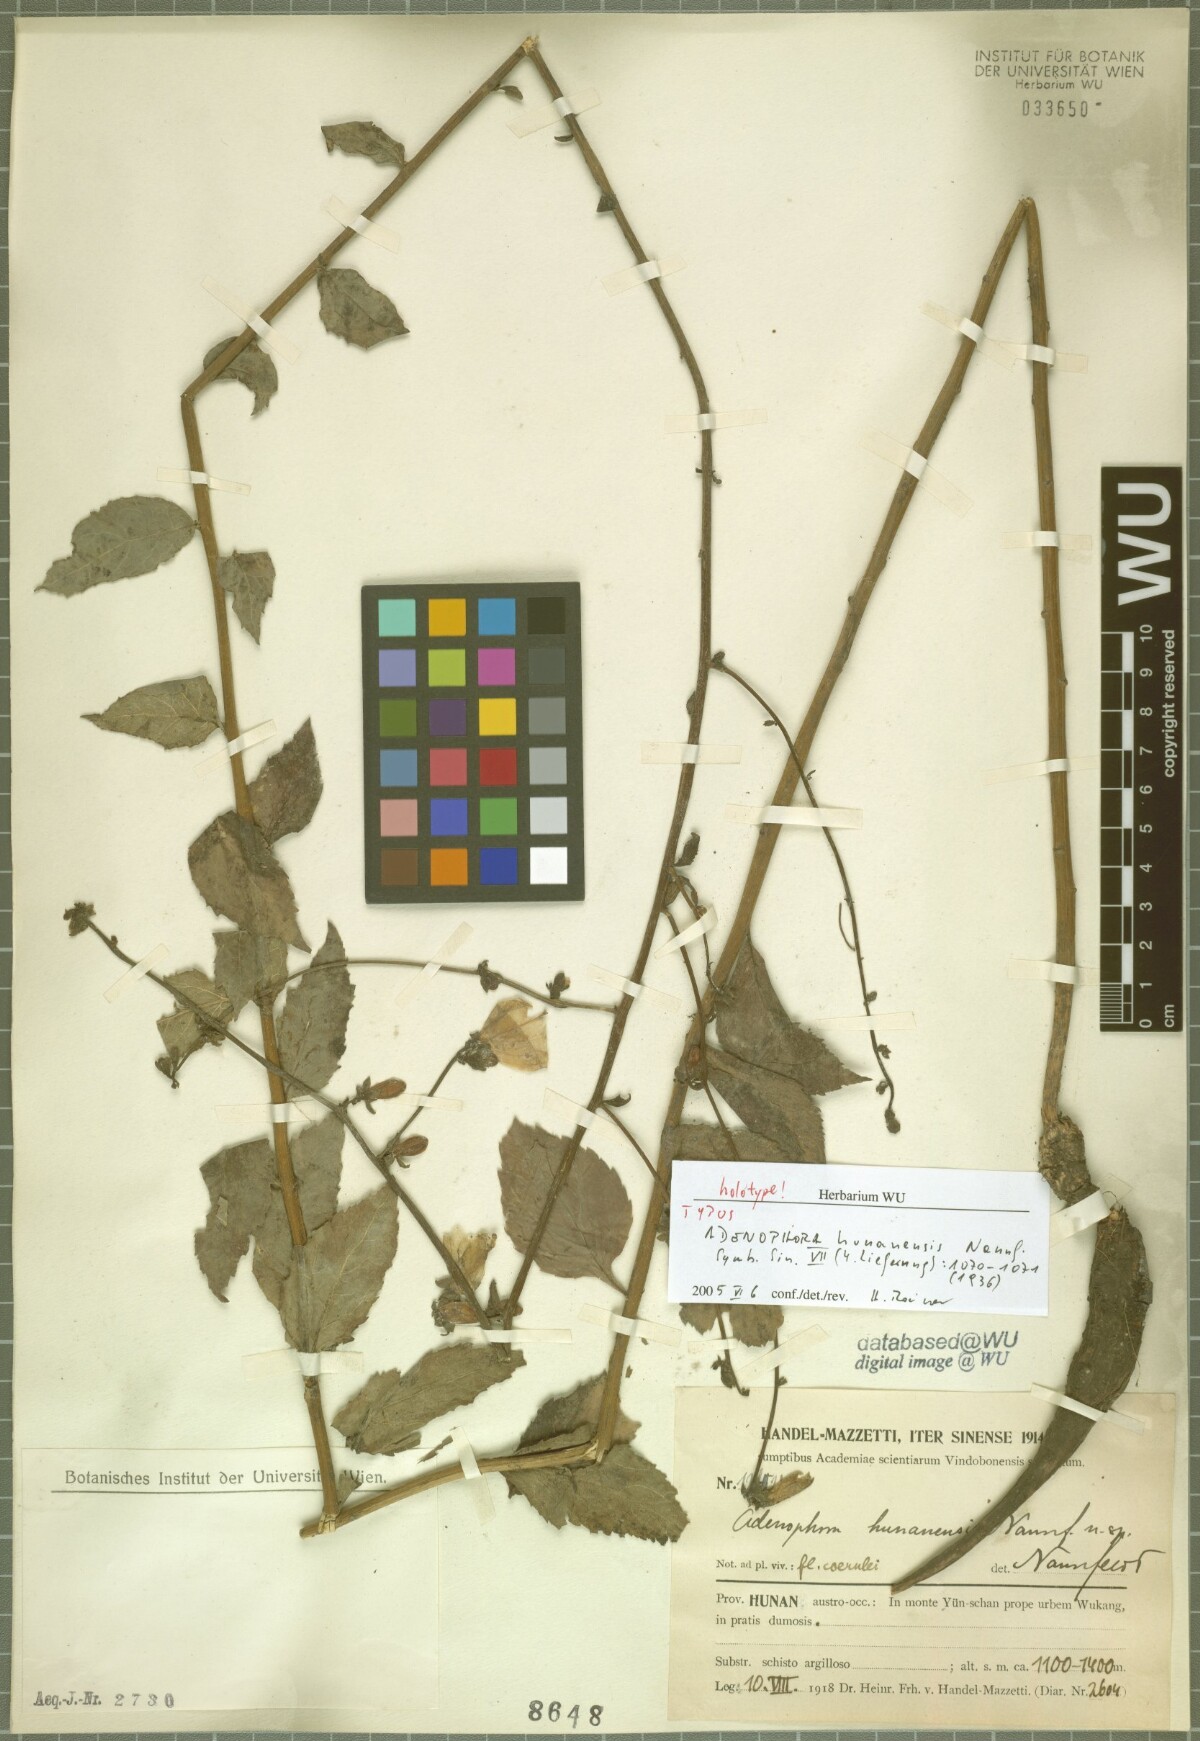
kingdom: Plantae
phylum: Tracheophyta
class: Magnoliopsida
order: Asterales
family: Campanulaceae
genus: Adenophora
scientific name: Adenophora petiolata
